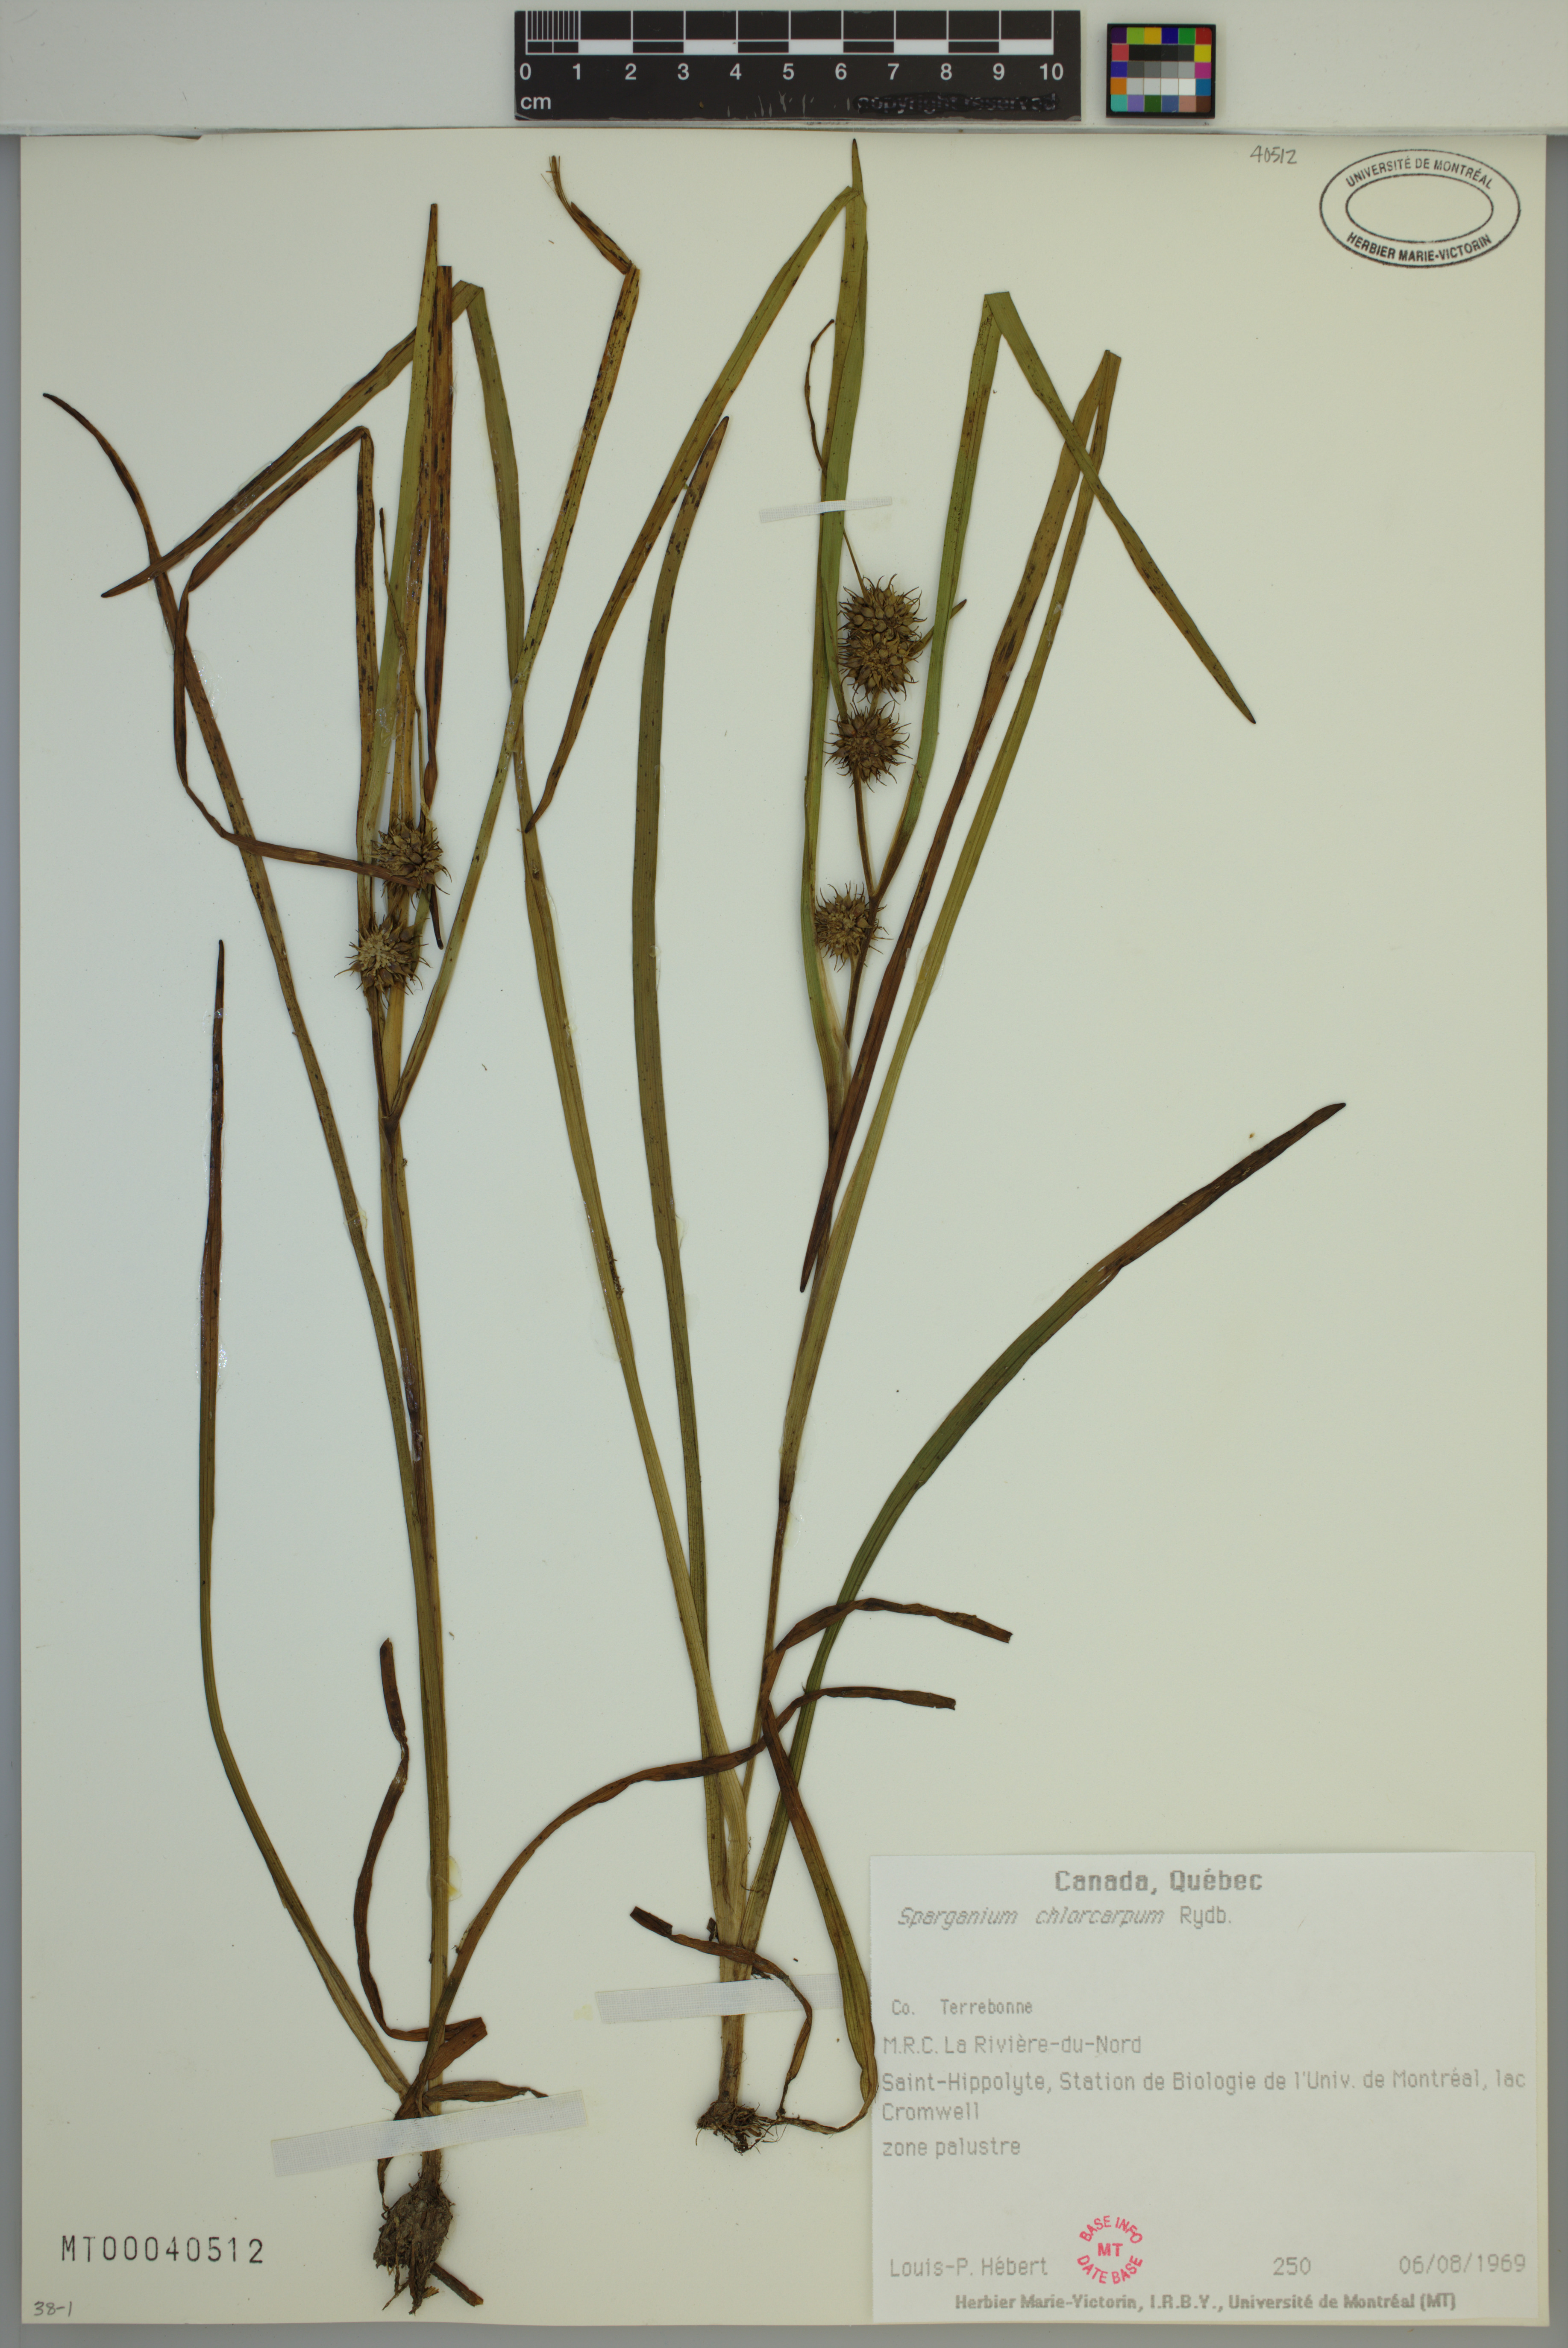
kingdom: Plantae
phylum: Tracheophyta
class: Liliopsida
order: Poales
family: Typhaceae
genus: Sparganium
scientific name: Sparganium emersum
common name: Unbranched bur-reed
